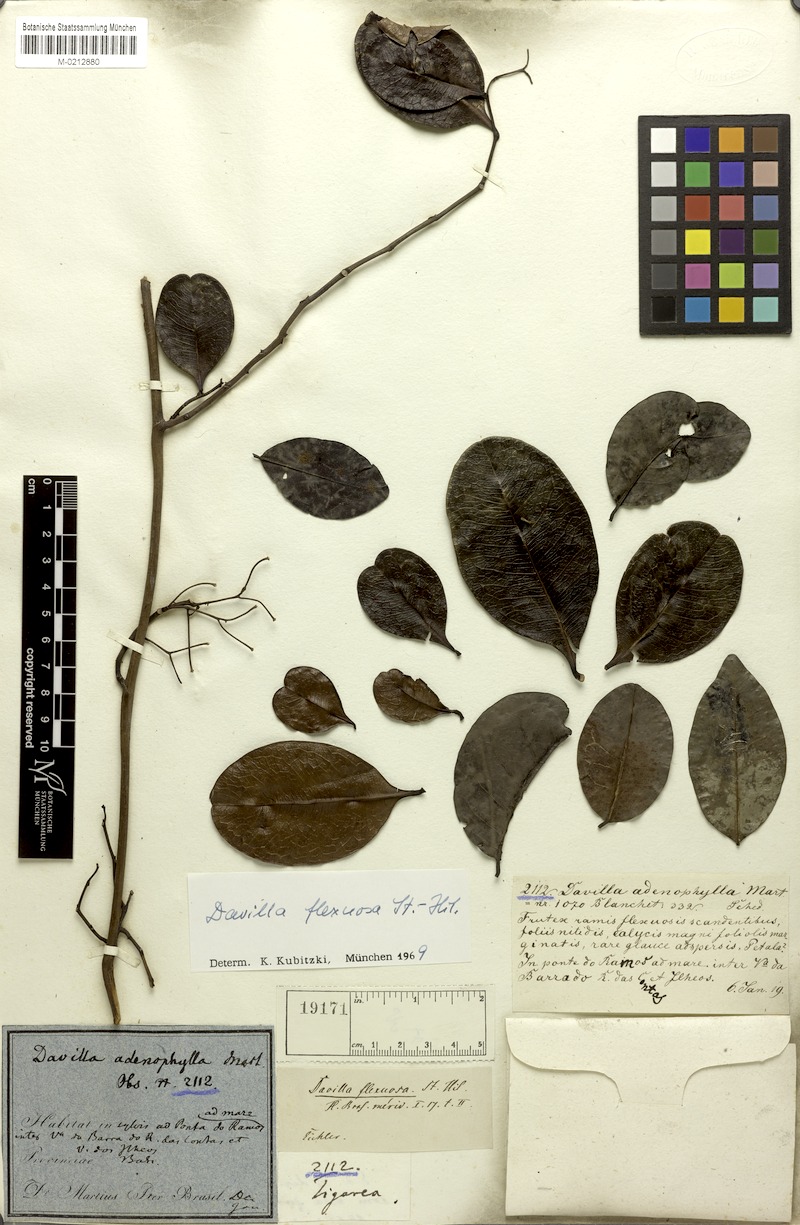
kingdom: Plantae
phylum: Tracheophyta
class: Magnoliopsida
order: Dilleniales
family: Dilleniaceae
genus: Davilla
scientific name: Davilla flexuosa
